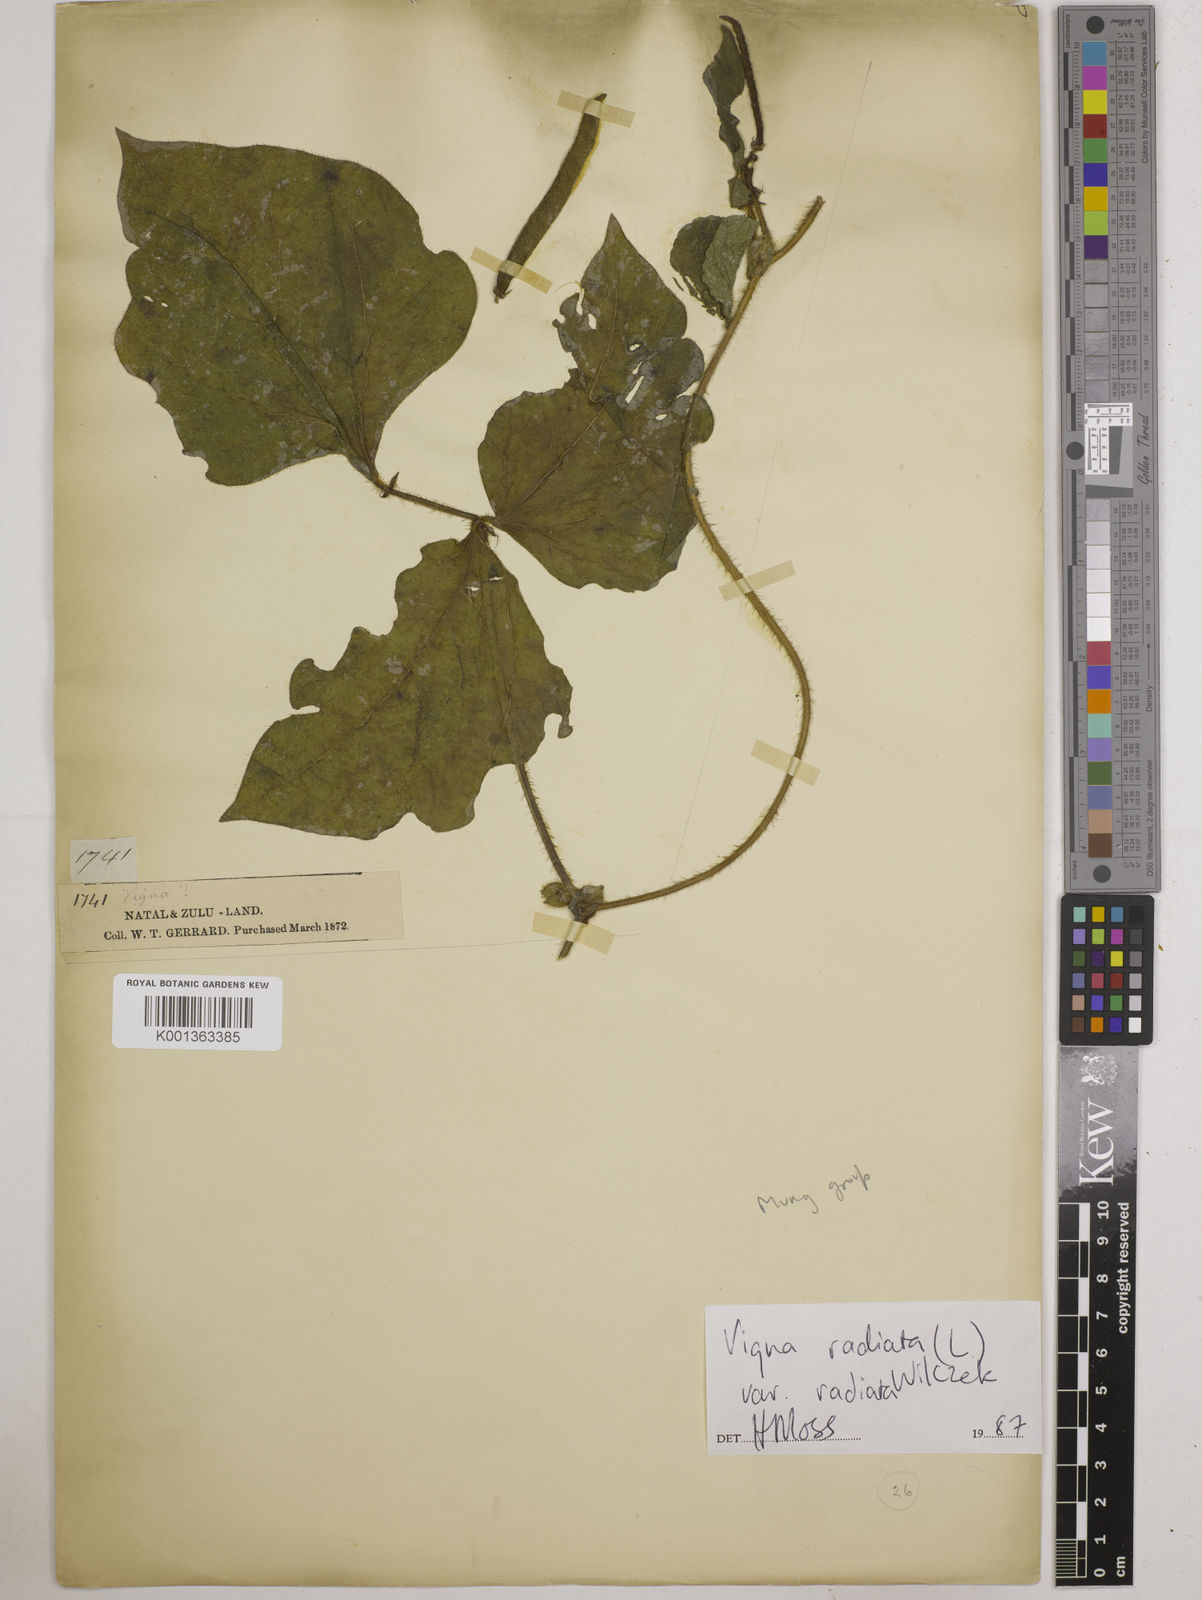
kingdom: Plantae
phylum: Tracheophyta
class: Magnoliopsida
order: Fabales
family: Fabaceae
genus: Vigna
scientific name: Vigna radiata
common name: Mung-bean
